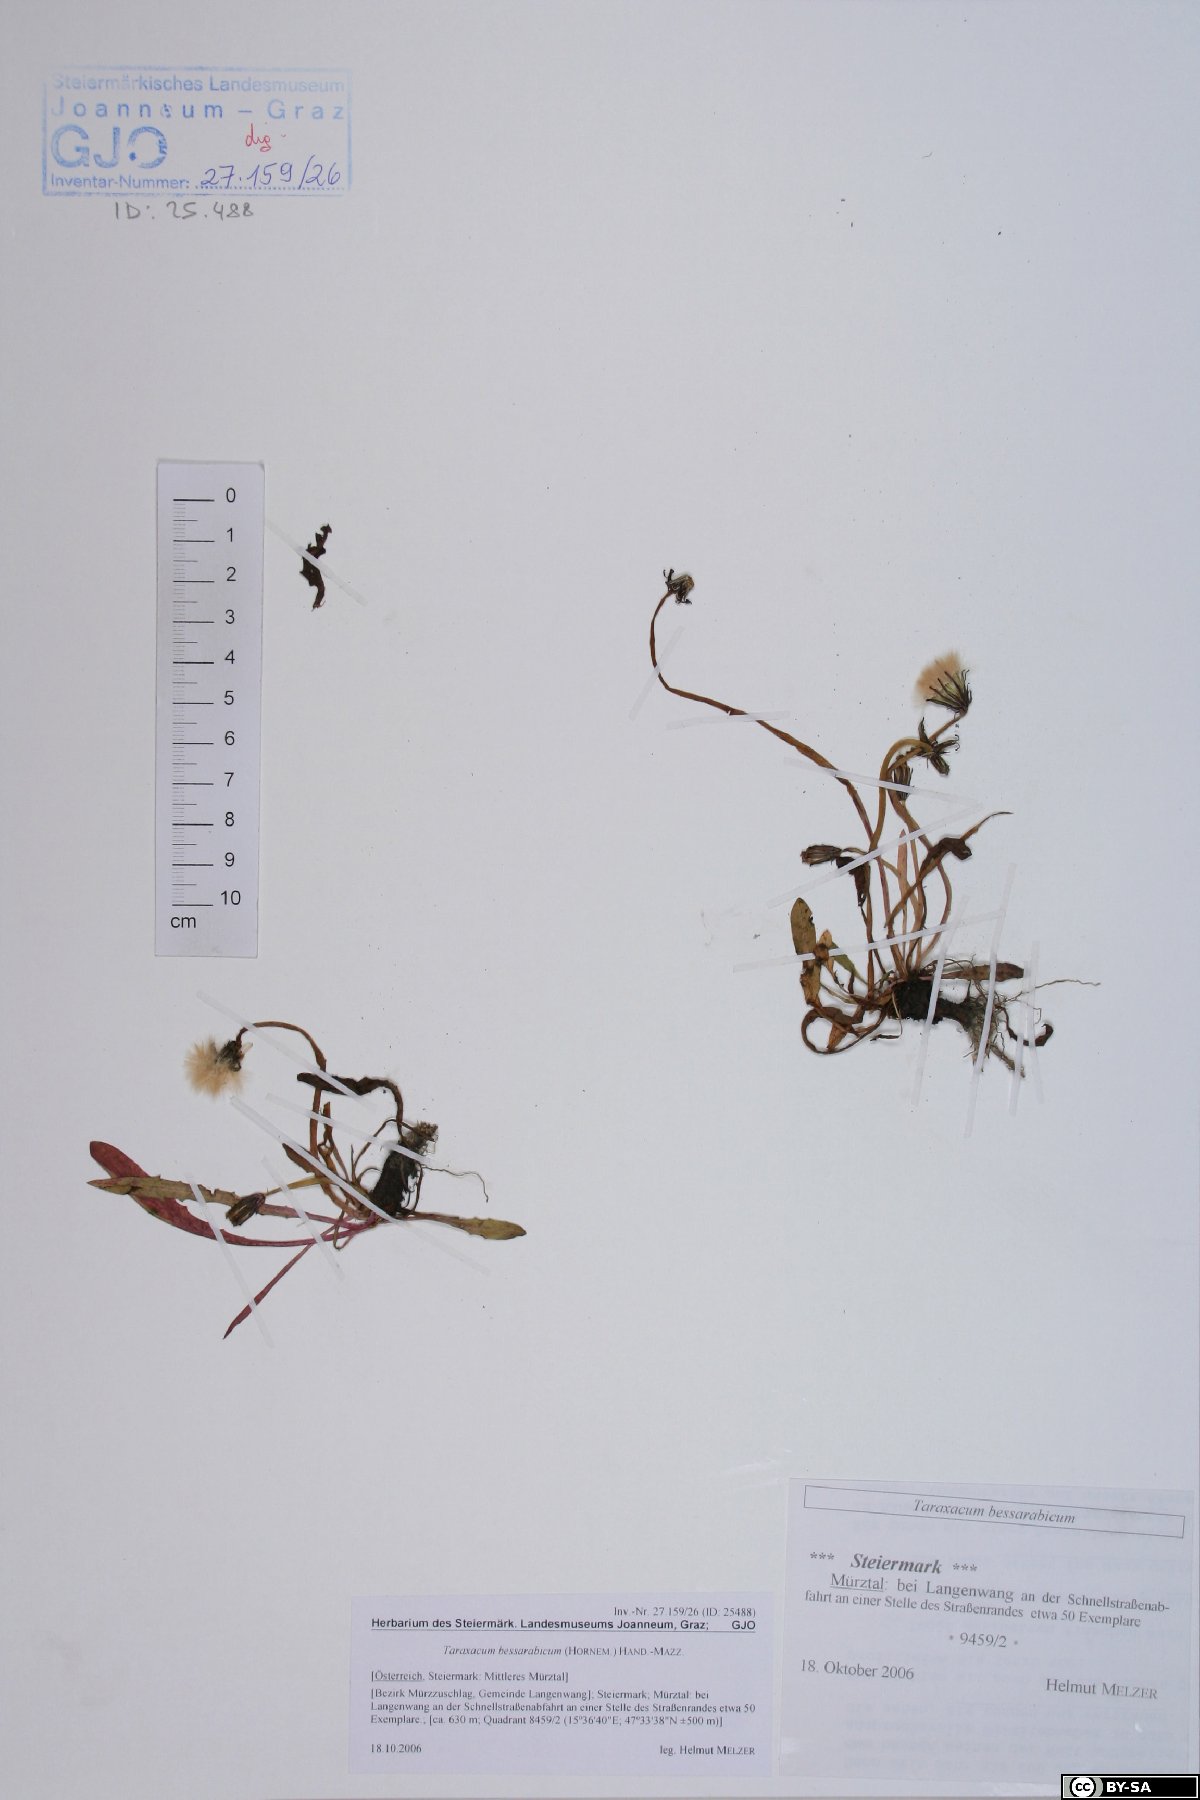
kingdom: Plantae
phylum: Tracheophyta
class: Magnoliopsida
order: Asterales
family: Asteraceae
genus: Taraxacum
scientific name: Taraxacum bessarabicum
